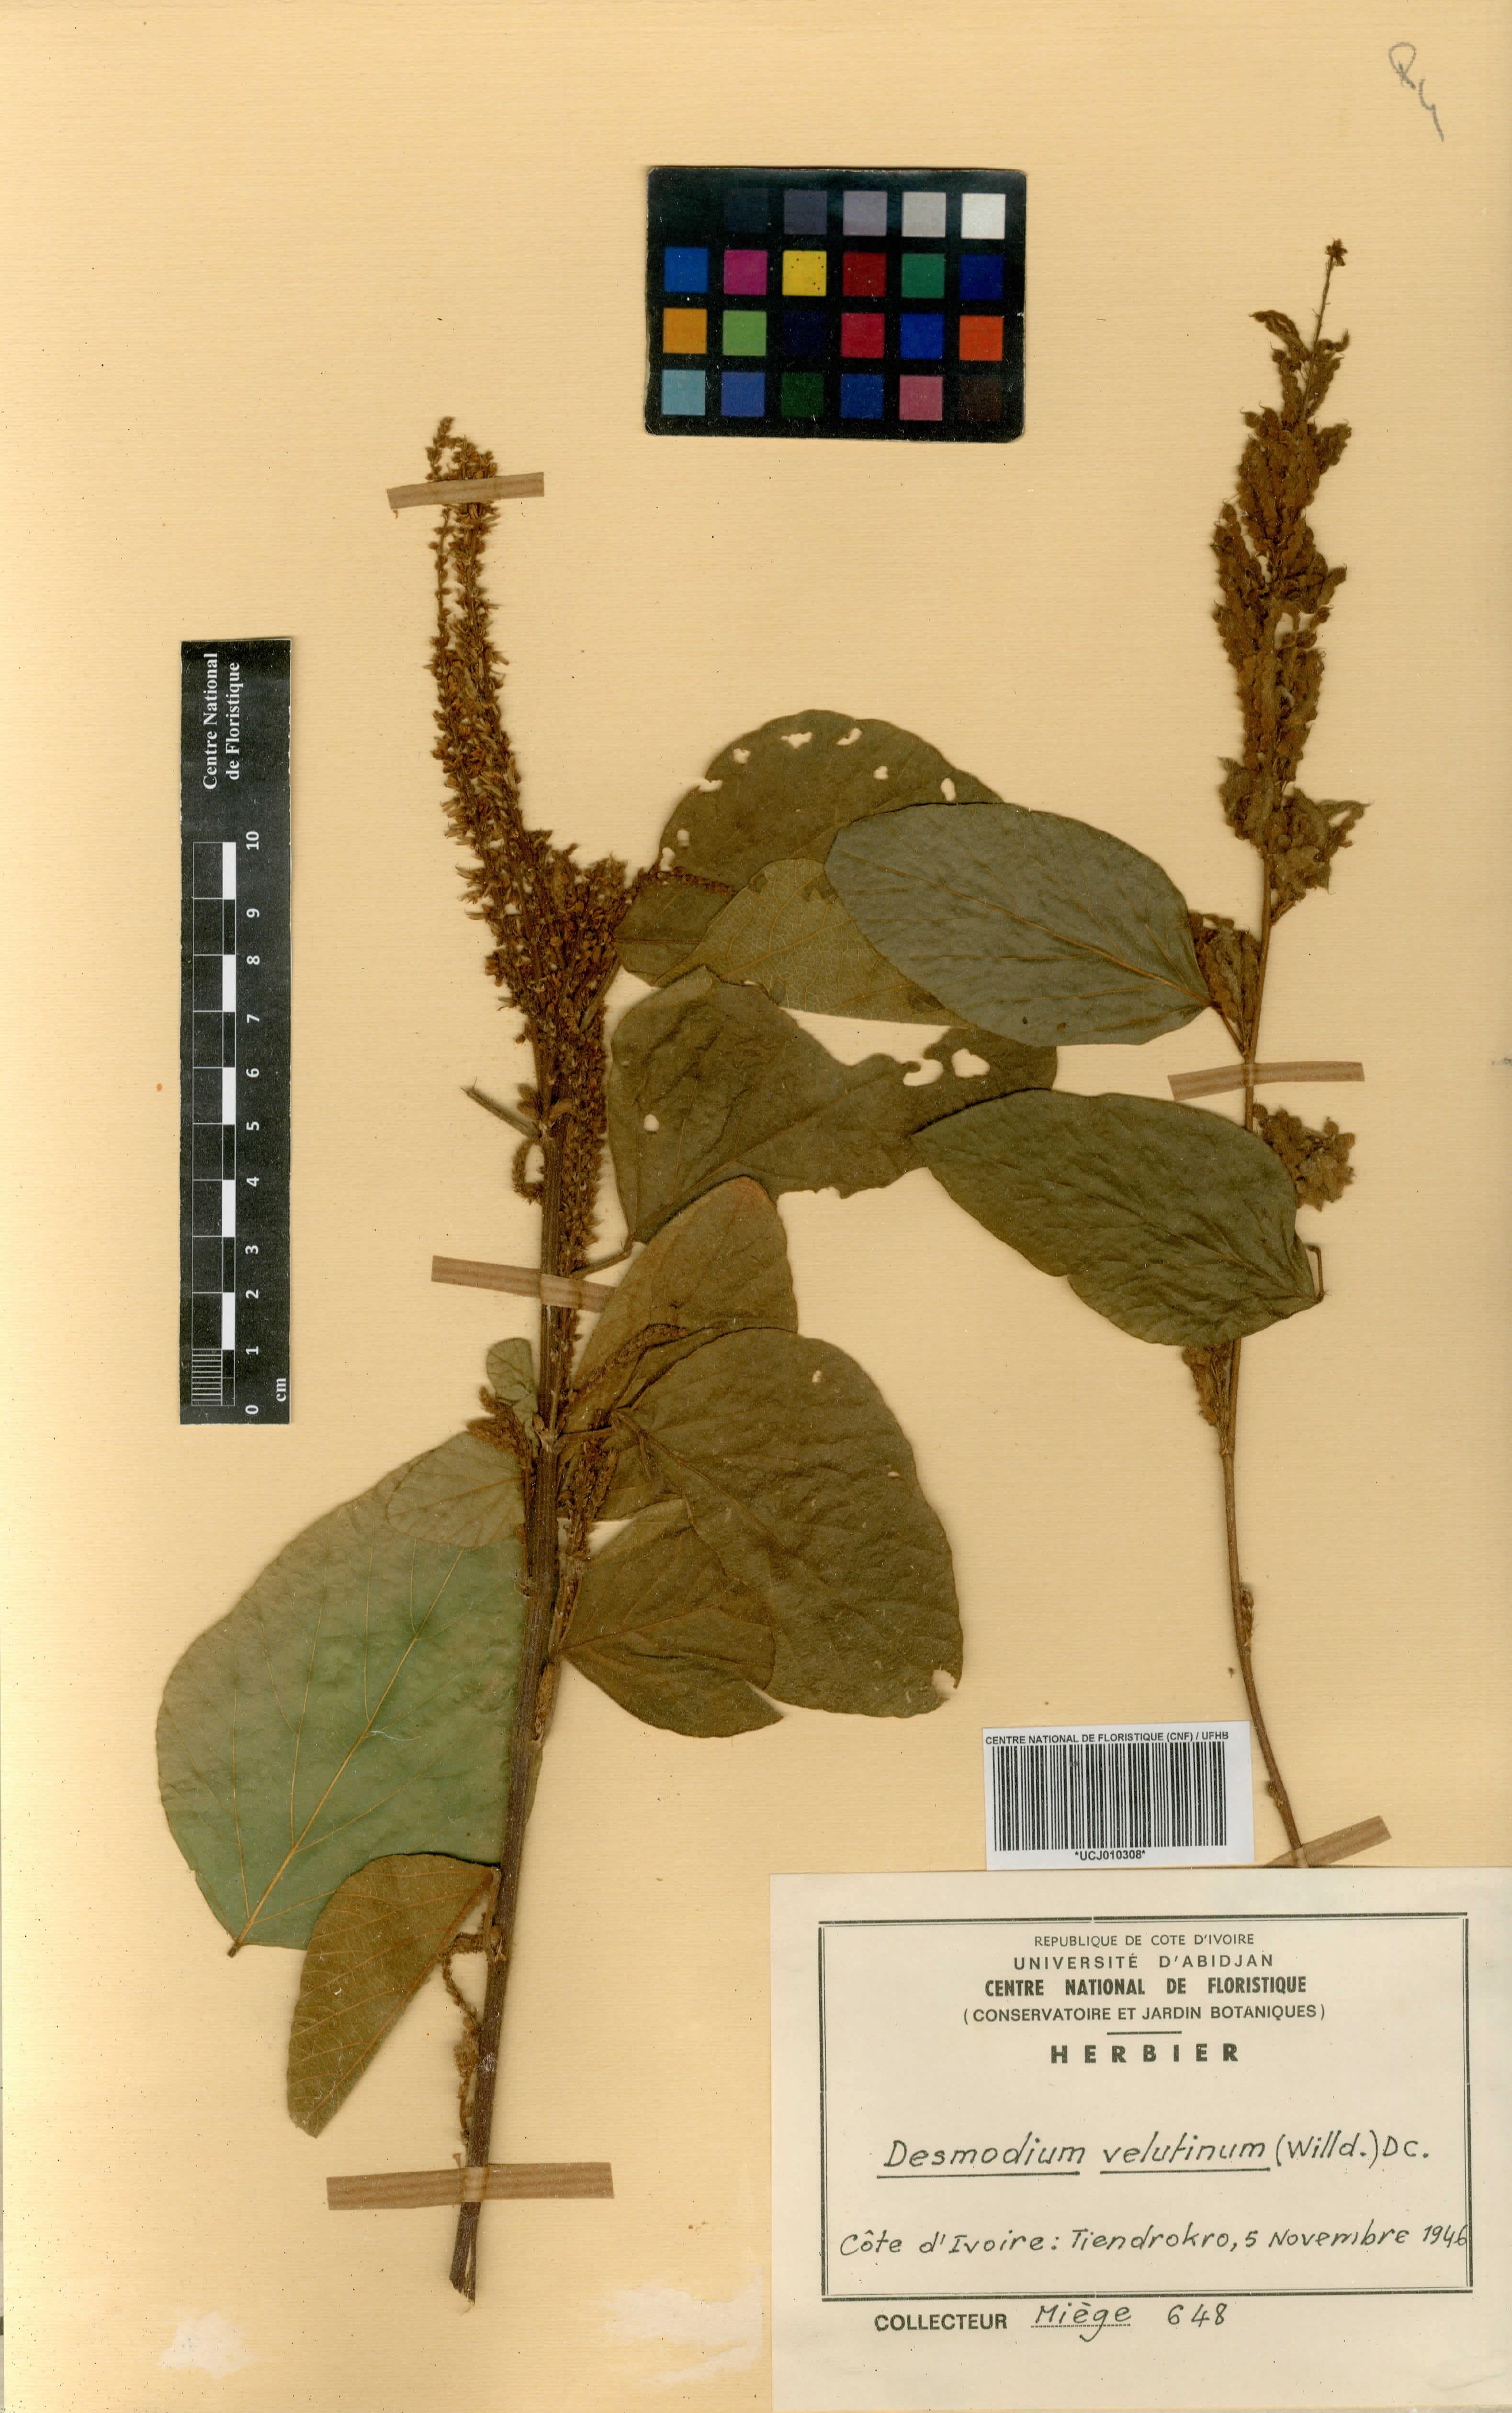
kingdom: Plantae
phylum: Tracheophyta
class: Magnoliopsida
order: Fabales
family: Fabaceae
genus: Polhillides
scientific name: Polhillides velutina
